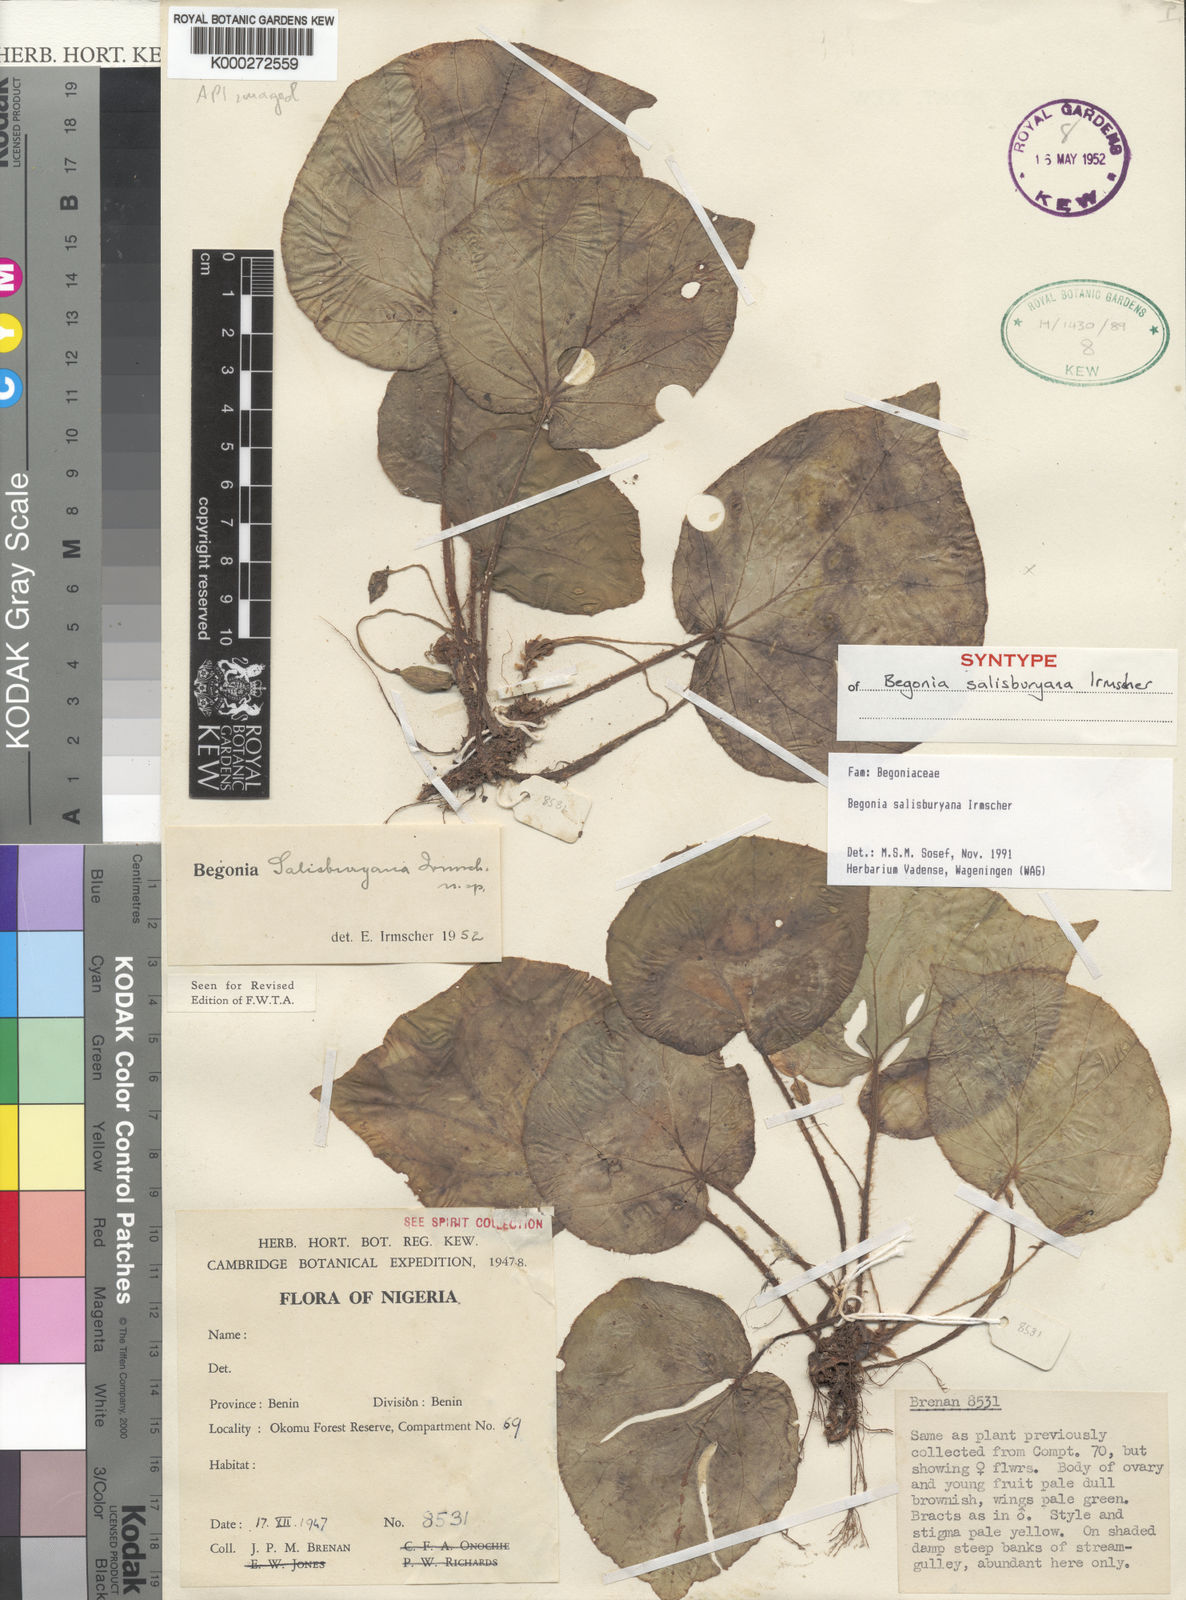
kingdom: Plantae
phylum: Tracheophyta
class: Magnoliopsida
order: Cucurbitales
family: Begoniaceae
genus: Begonia
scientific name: Begonia salisburyana
